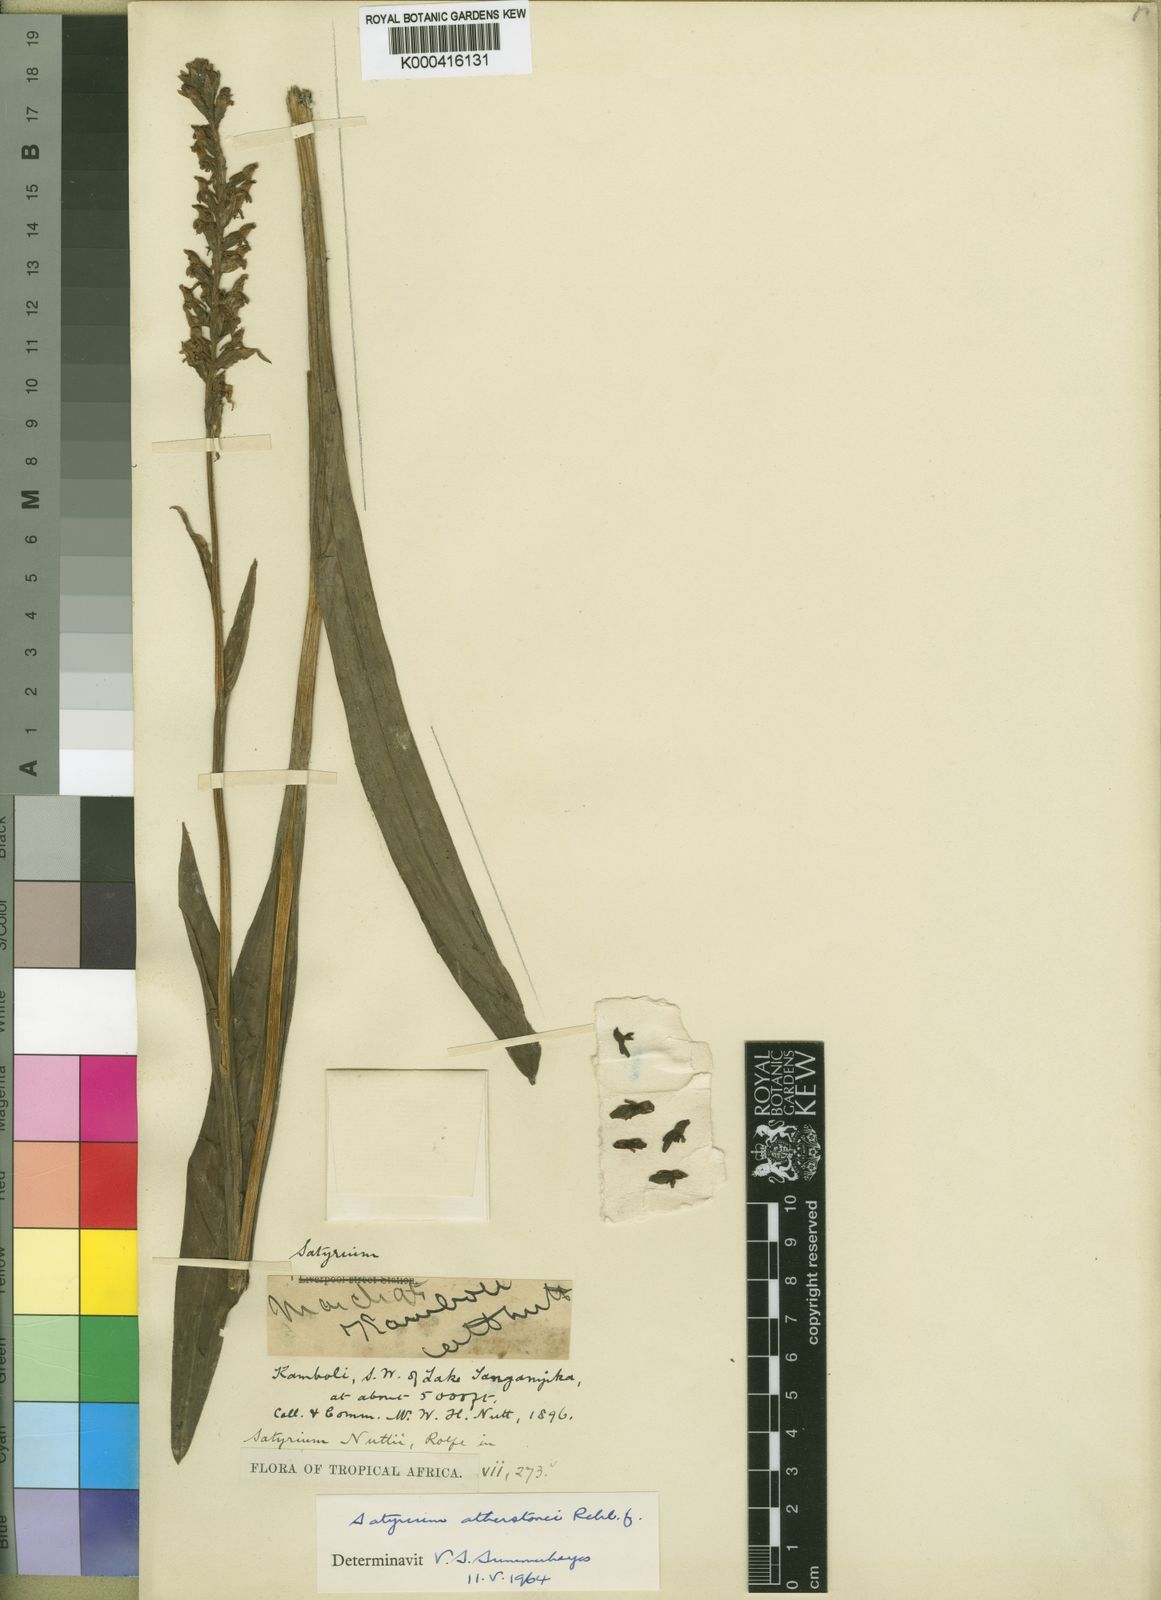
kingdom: Plantae
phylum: Tracheophyta
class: Liliopsida
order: Asparagales
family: Orchidaceae
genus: Satyrium
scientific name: Satyrium trinerve
